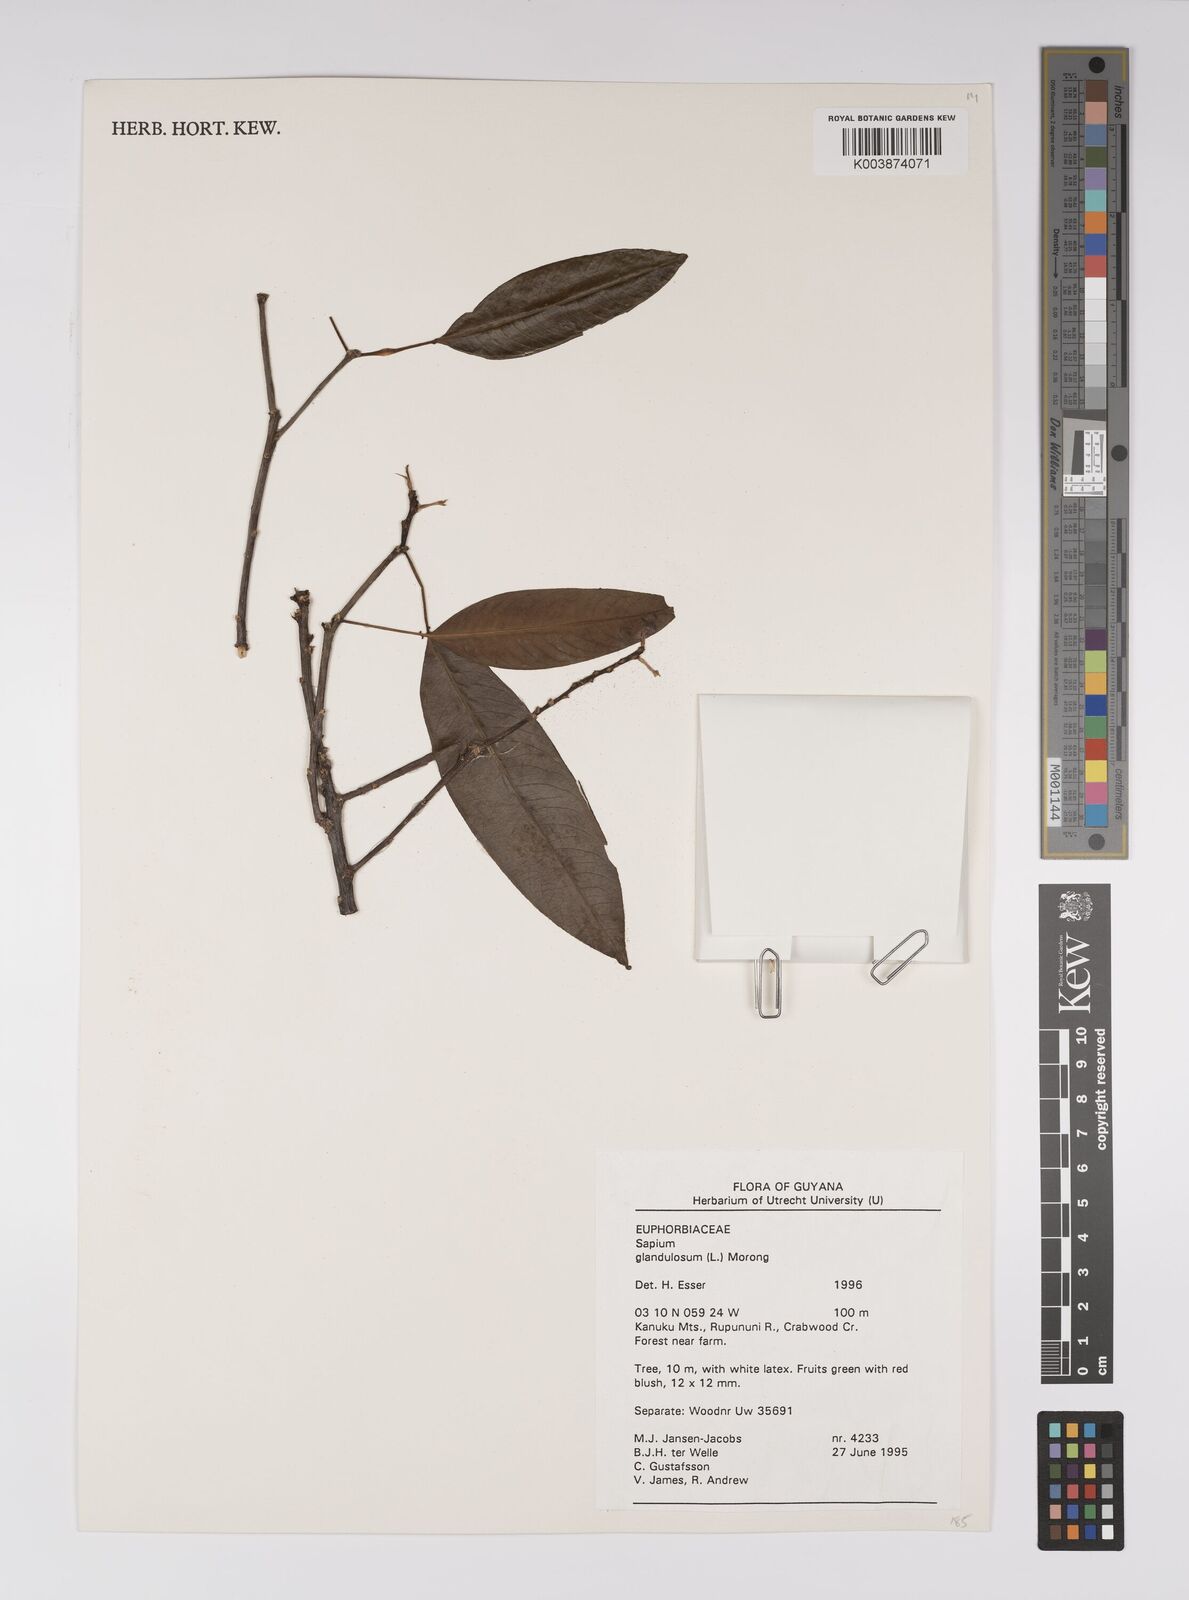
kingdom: Plantae
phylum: Tracheophyta
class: Magnoliopsida
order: Malpighiales
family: Euphorbiaceae
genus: Sapium
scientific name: Sapium glandulosum
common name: Milktree
